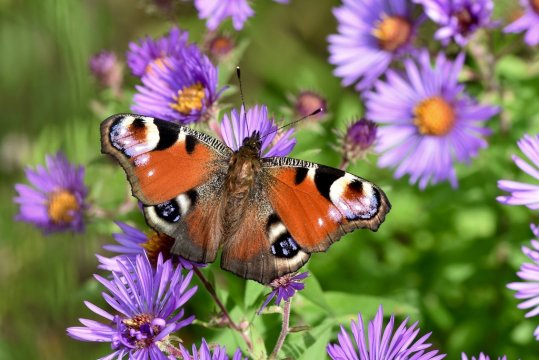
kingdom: Animalia
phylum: Arthropoda
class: Insecta
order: Lepidoptera
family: Nymphalidae
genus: Aglais
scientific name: Aglais io
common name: European Peacock
